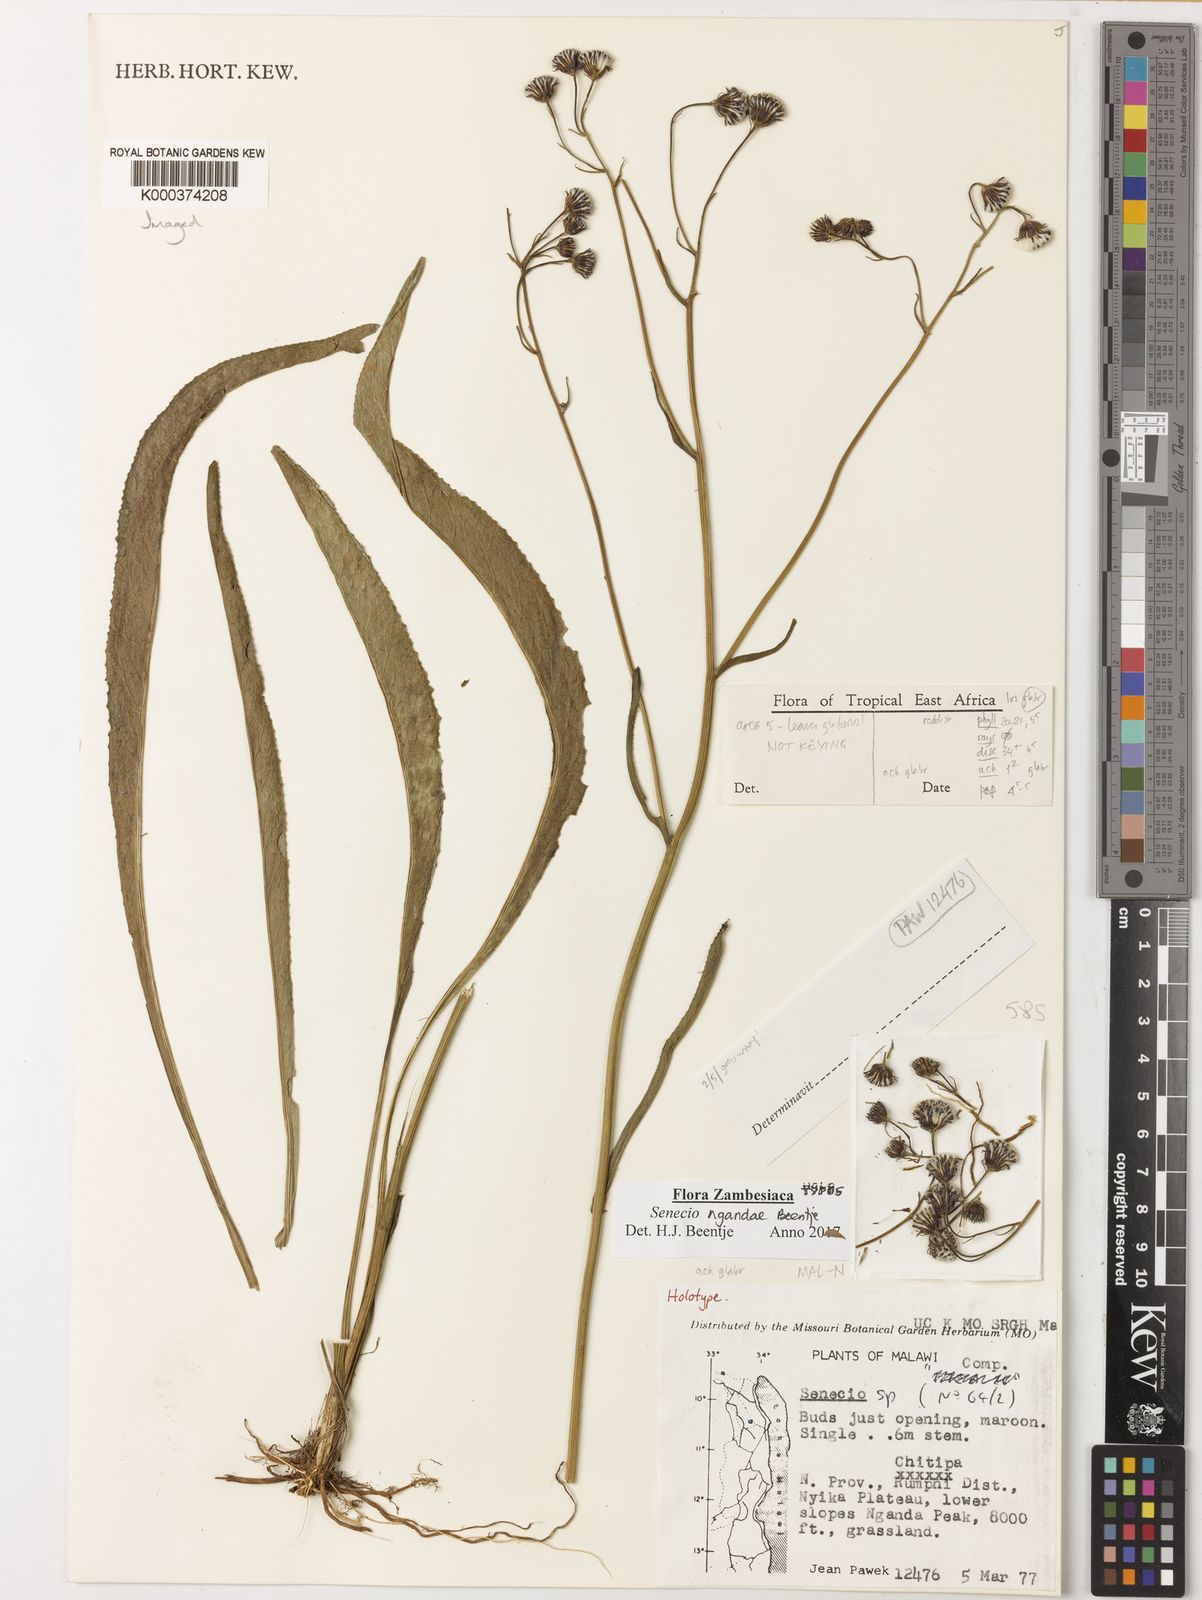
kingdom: Plantae
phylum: Tracheophyta
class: Magnoliopsida
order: Asterales
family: Asteraceae
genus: Senecio
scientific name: Senecio
